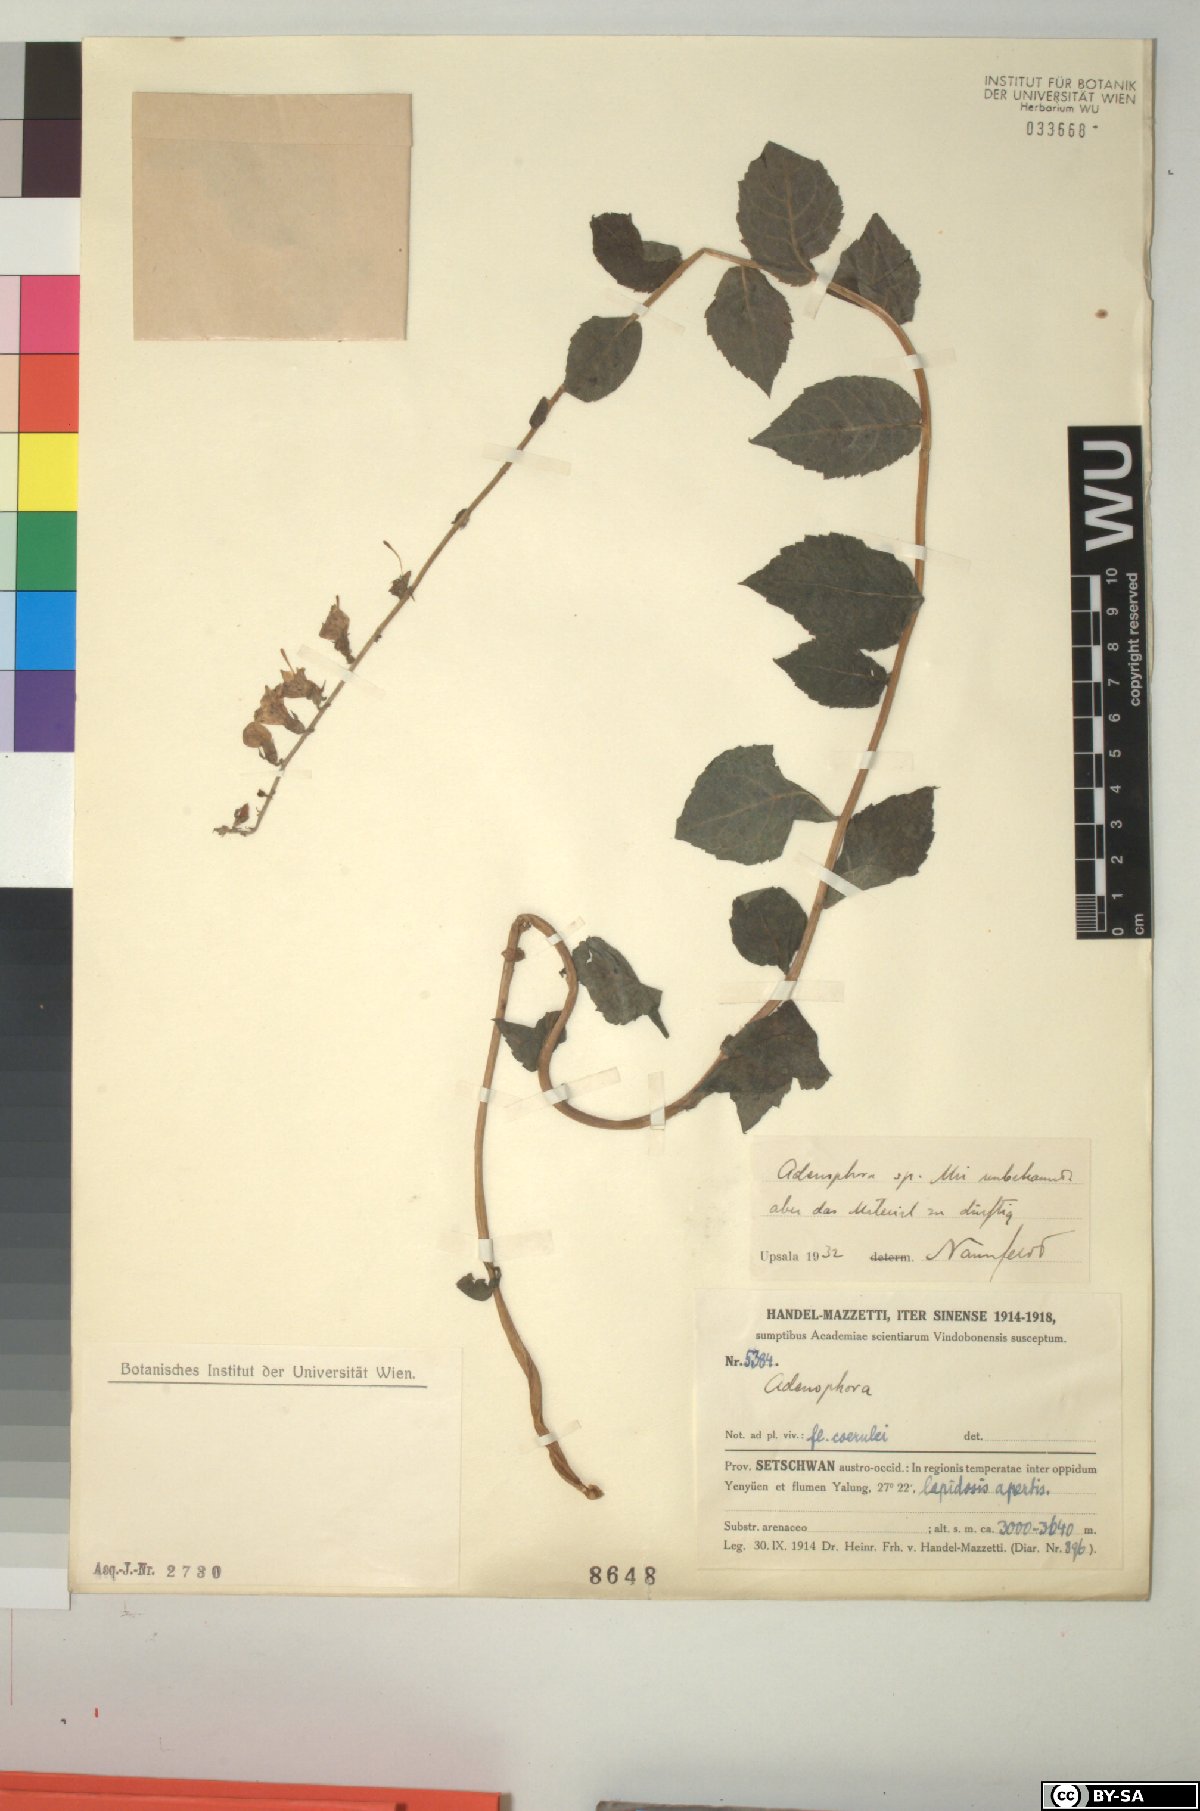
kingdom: Plantae
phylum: Tracheophyta
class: Magnoliopsida
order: Asterales
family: Campanulaceae
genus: Adenophora
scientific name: Adenophora
